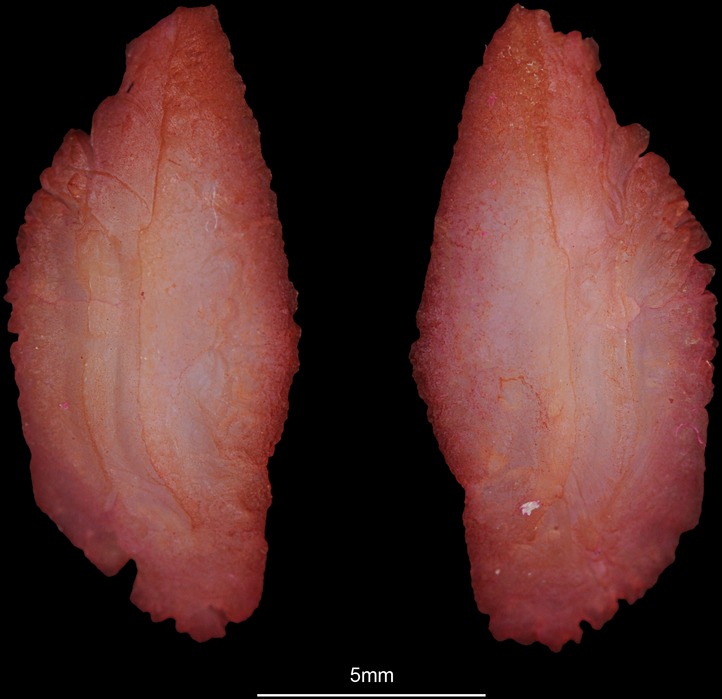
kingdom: Animalia
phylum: Chordata
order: Perciformes
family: Serranidae
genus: Epinephelus
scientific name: Epinephelus albomarginatus
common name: Captain fine
